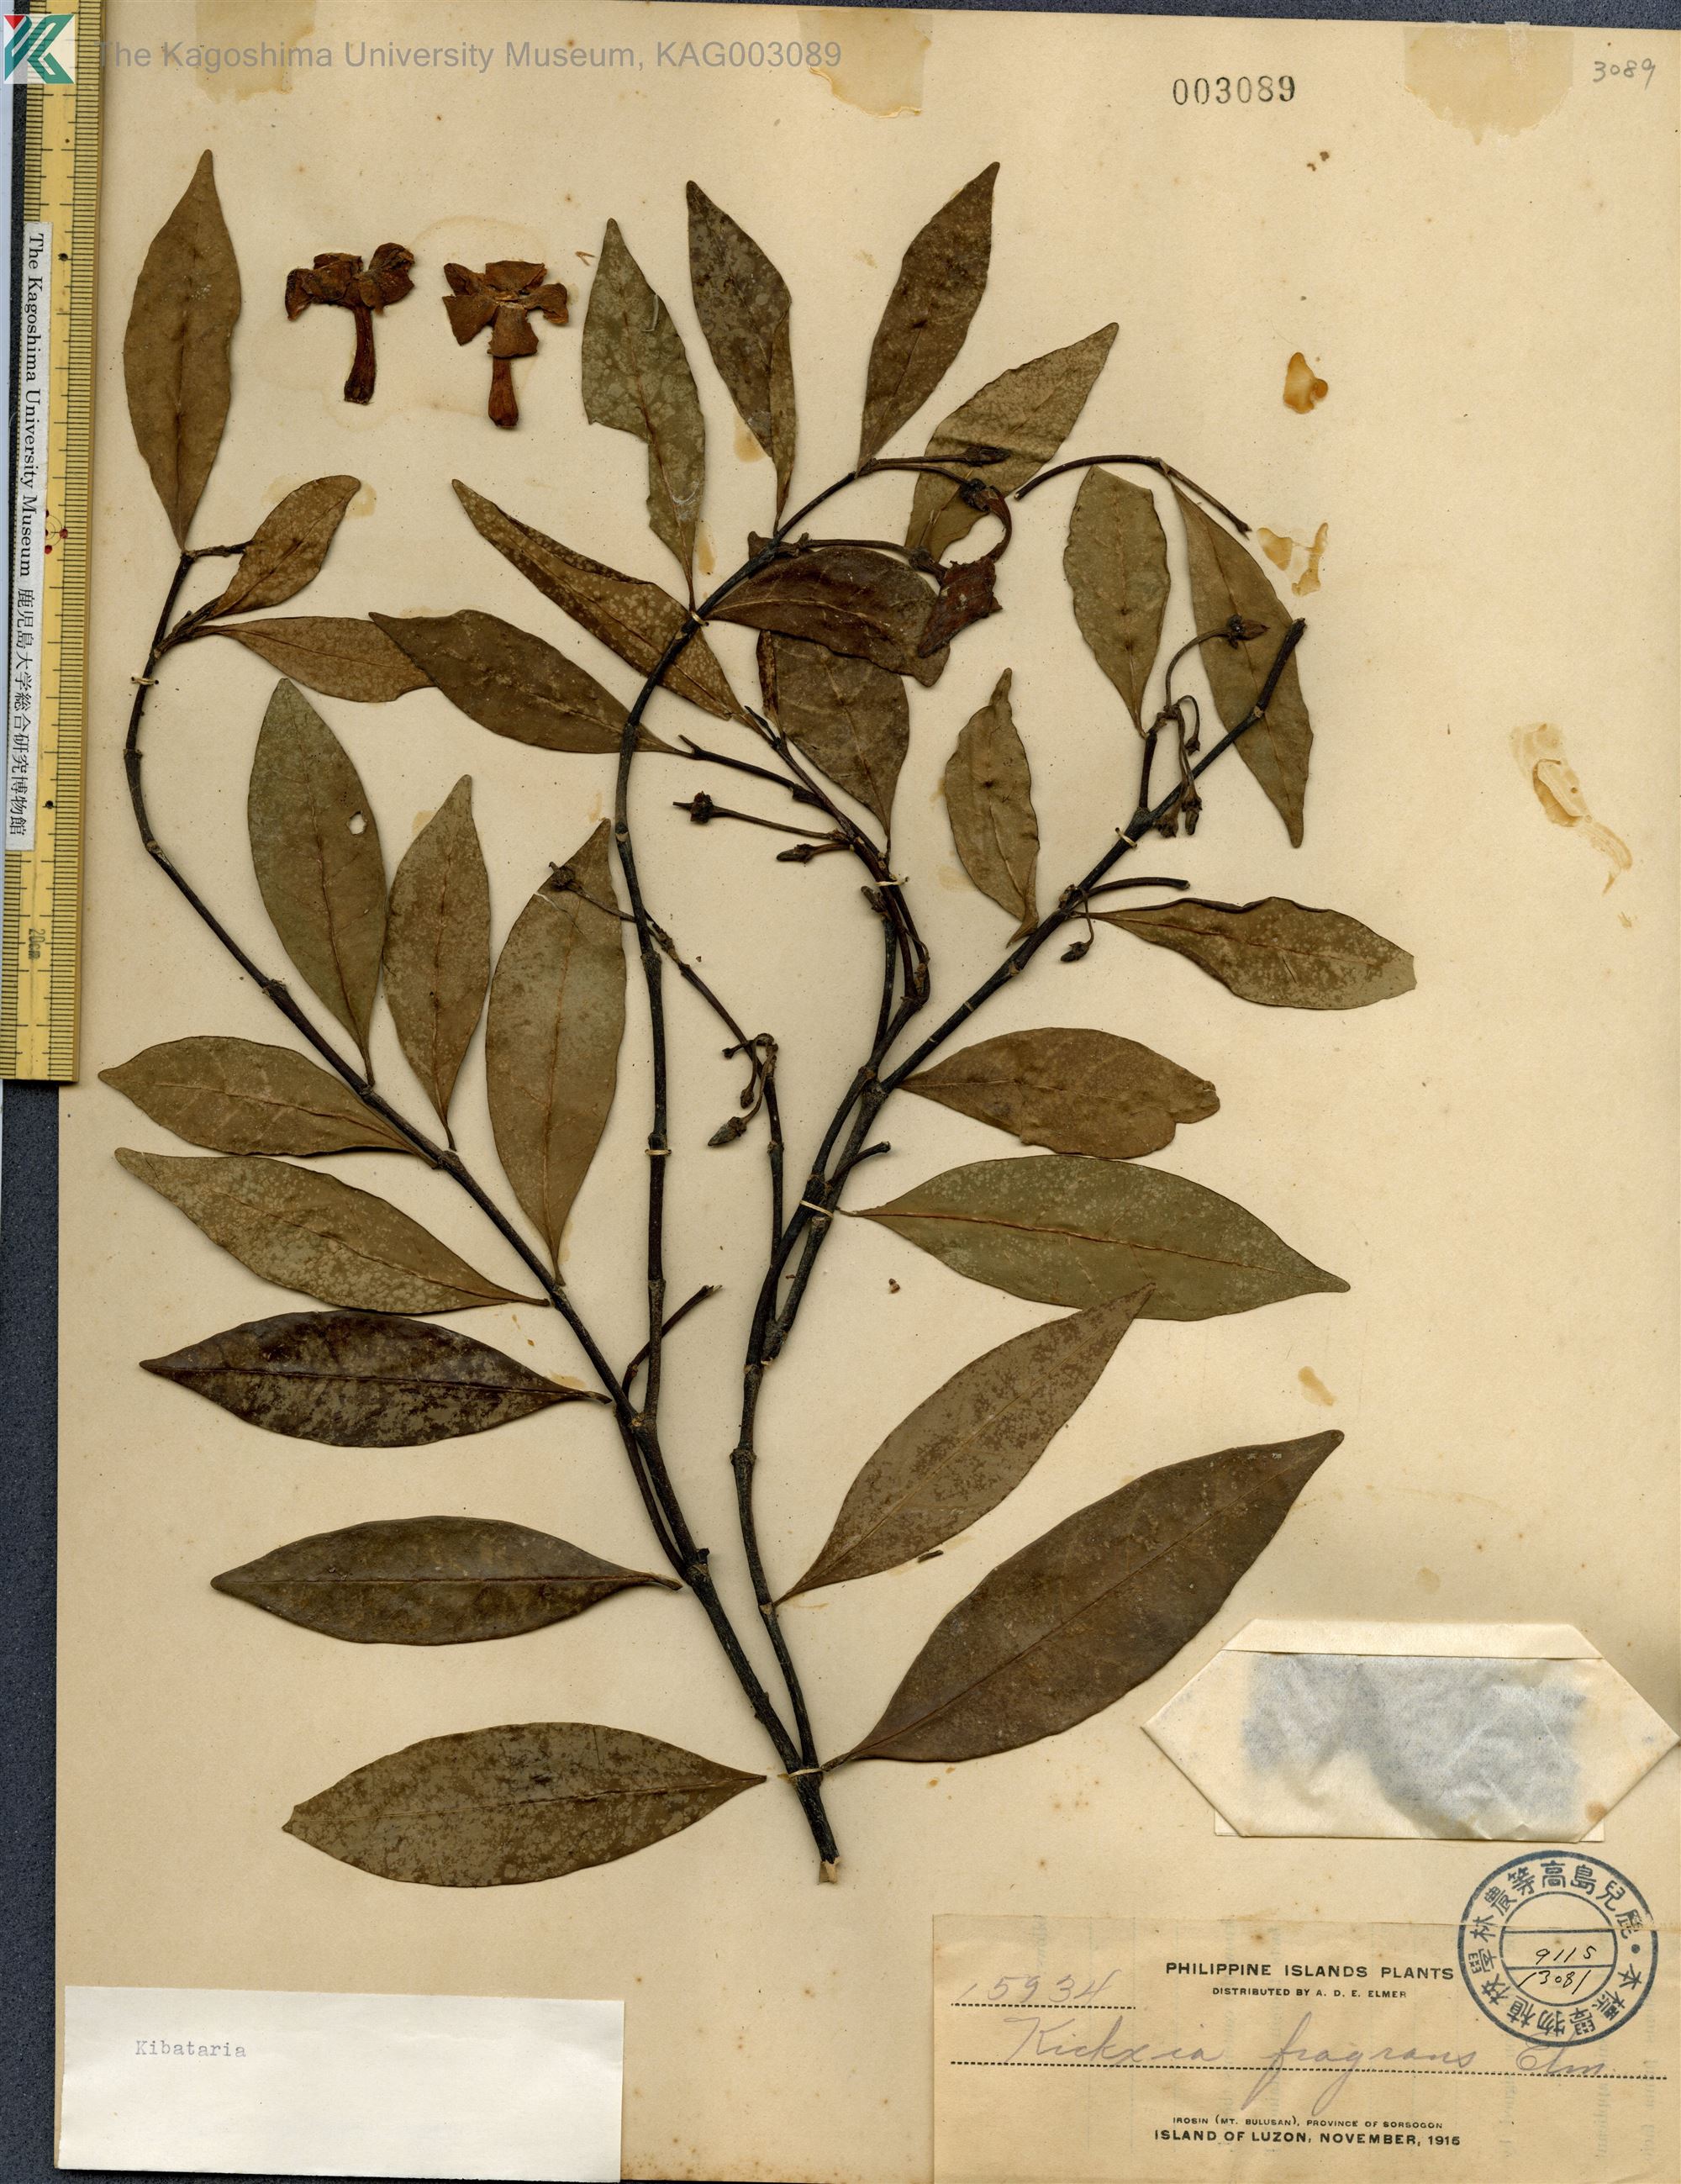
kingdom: Plantae
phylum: Tracheophyta
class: Magnoliopsida
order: Gentianales
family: Apocynaceae
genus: Kibatalia
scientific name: Kibatalia
